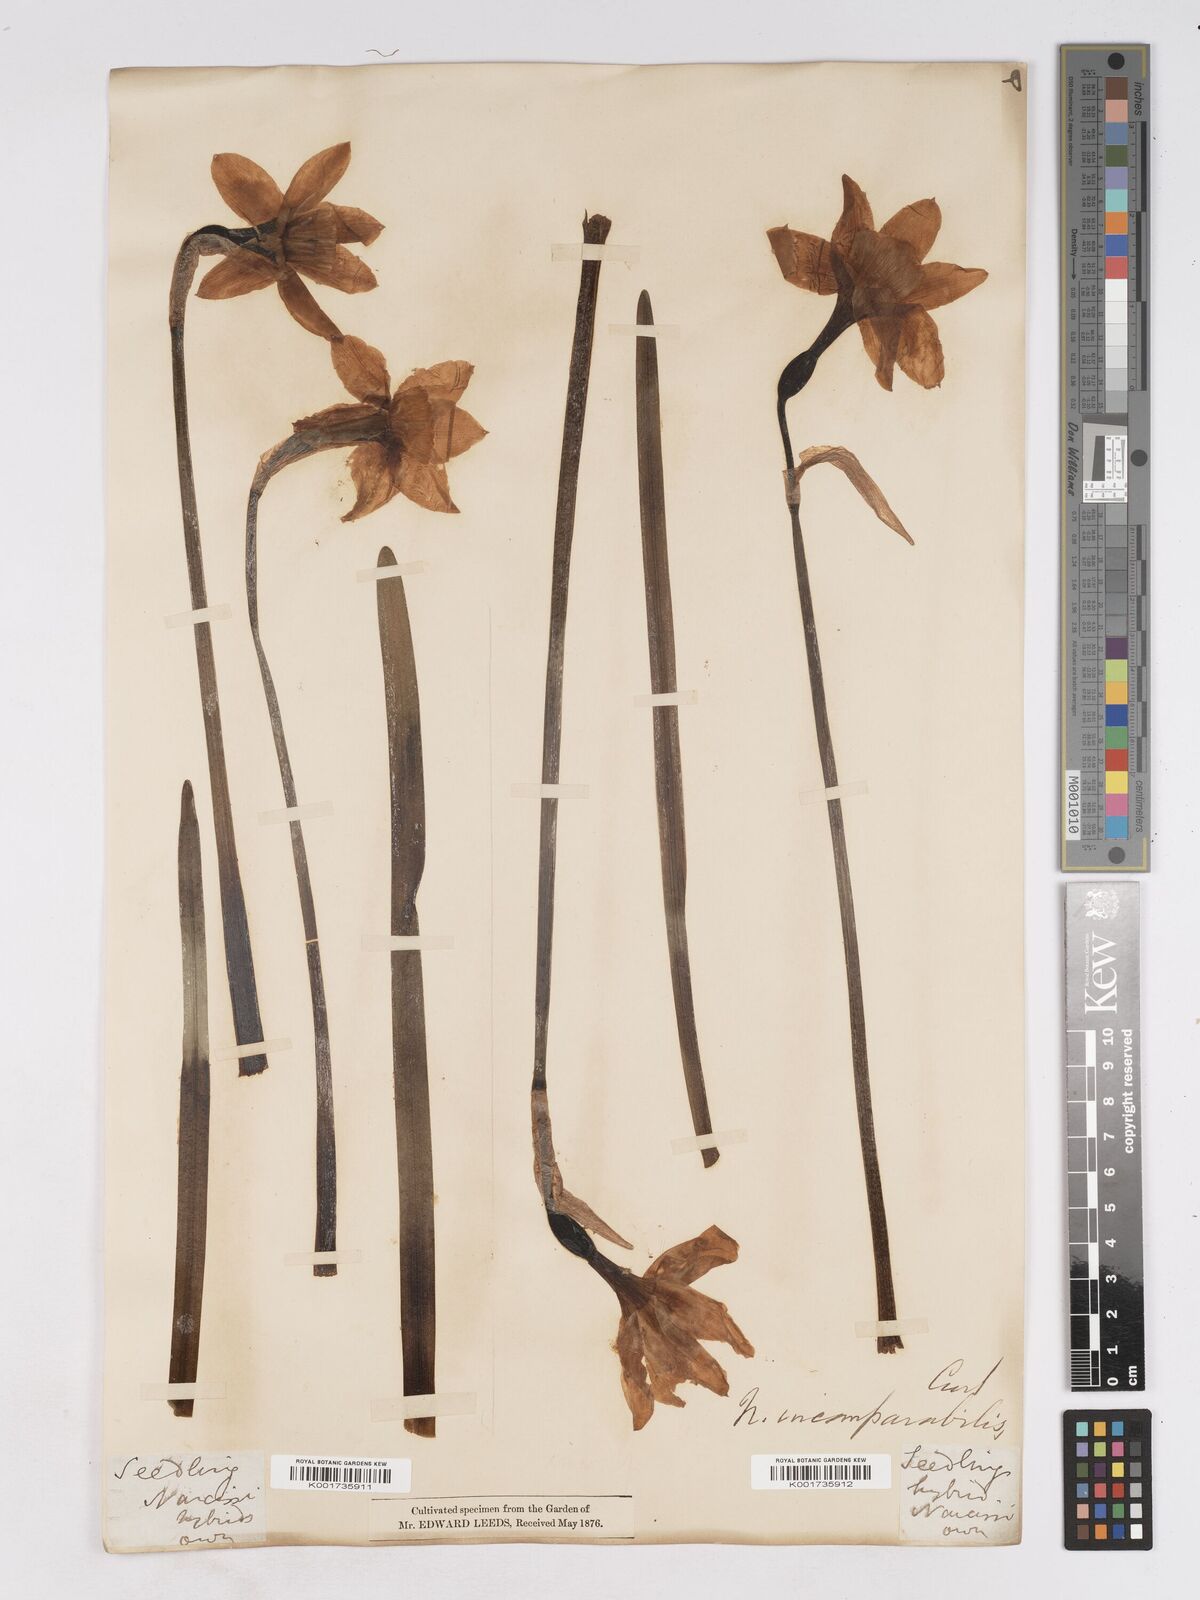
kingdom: Plantae
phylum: Tracheophyta
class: Liliopsida
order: Asparagales
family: Amaryllidaceae
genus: Narcissus
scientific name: Narcissus incomparabilis
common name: Nonesuch daffodil
